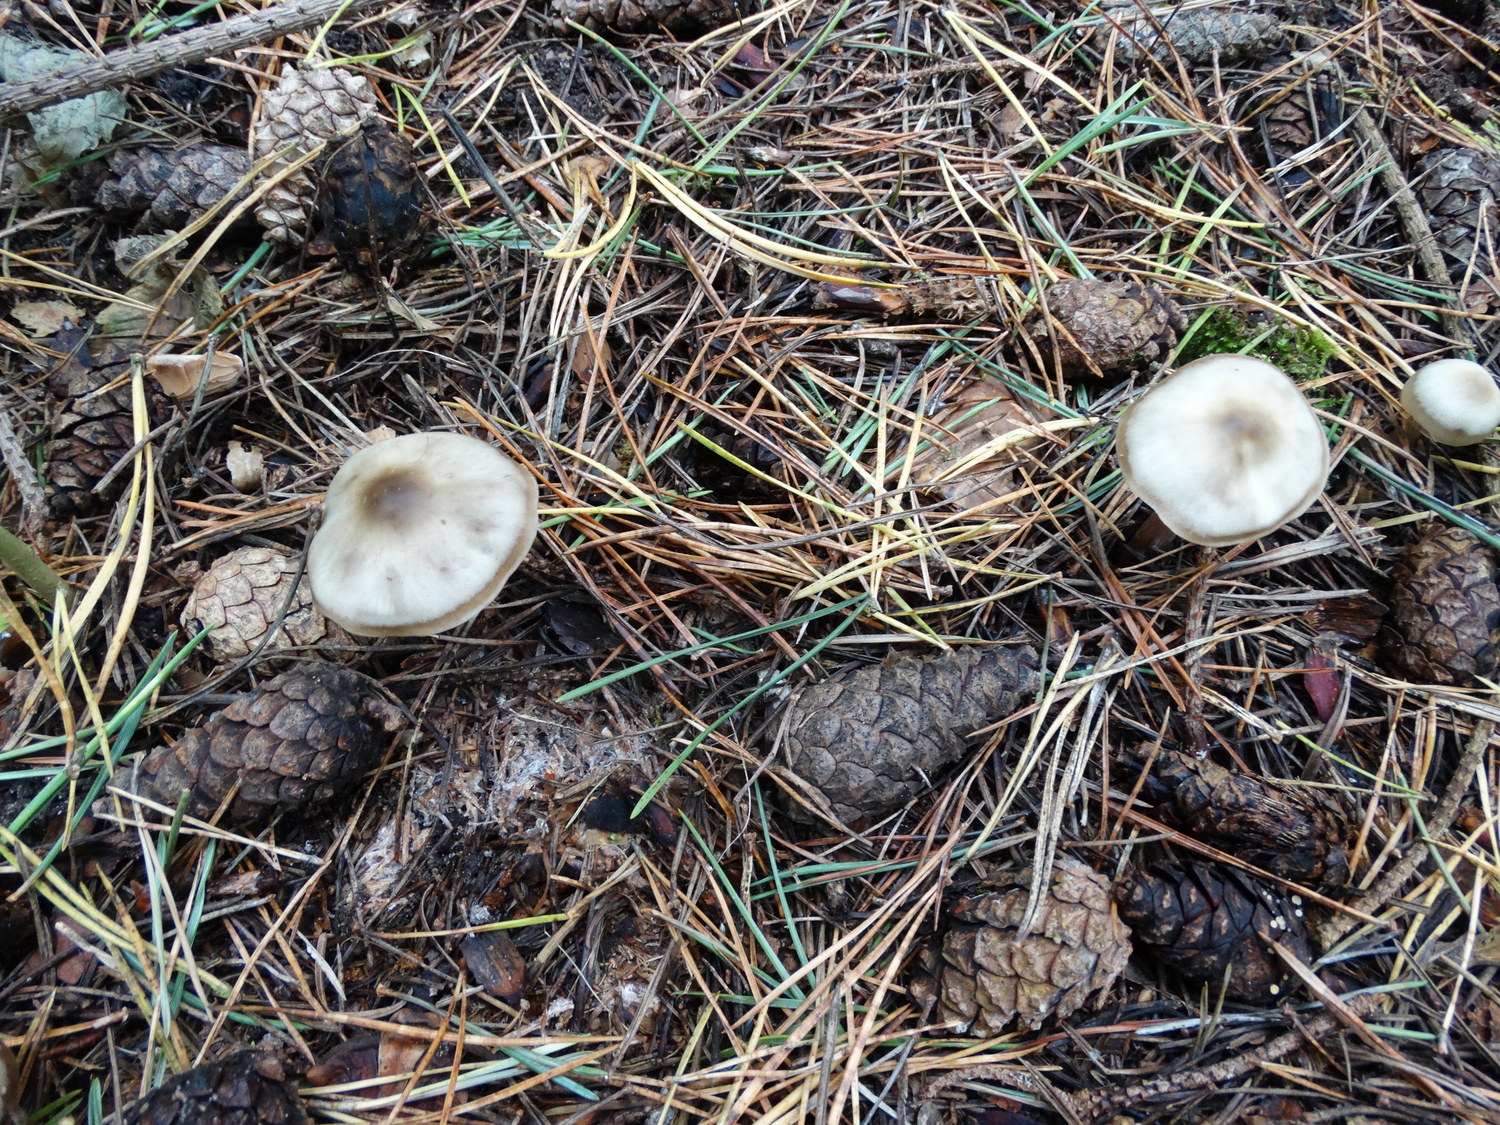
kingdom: Fungi
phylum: Basidiomycota
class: Agaricomycetes
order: Agaricales
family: Omphalotaceae
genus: Rhodocollybia
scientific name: Rhodocollybia asema
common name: horngrå fladhat
